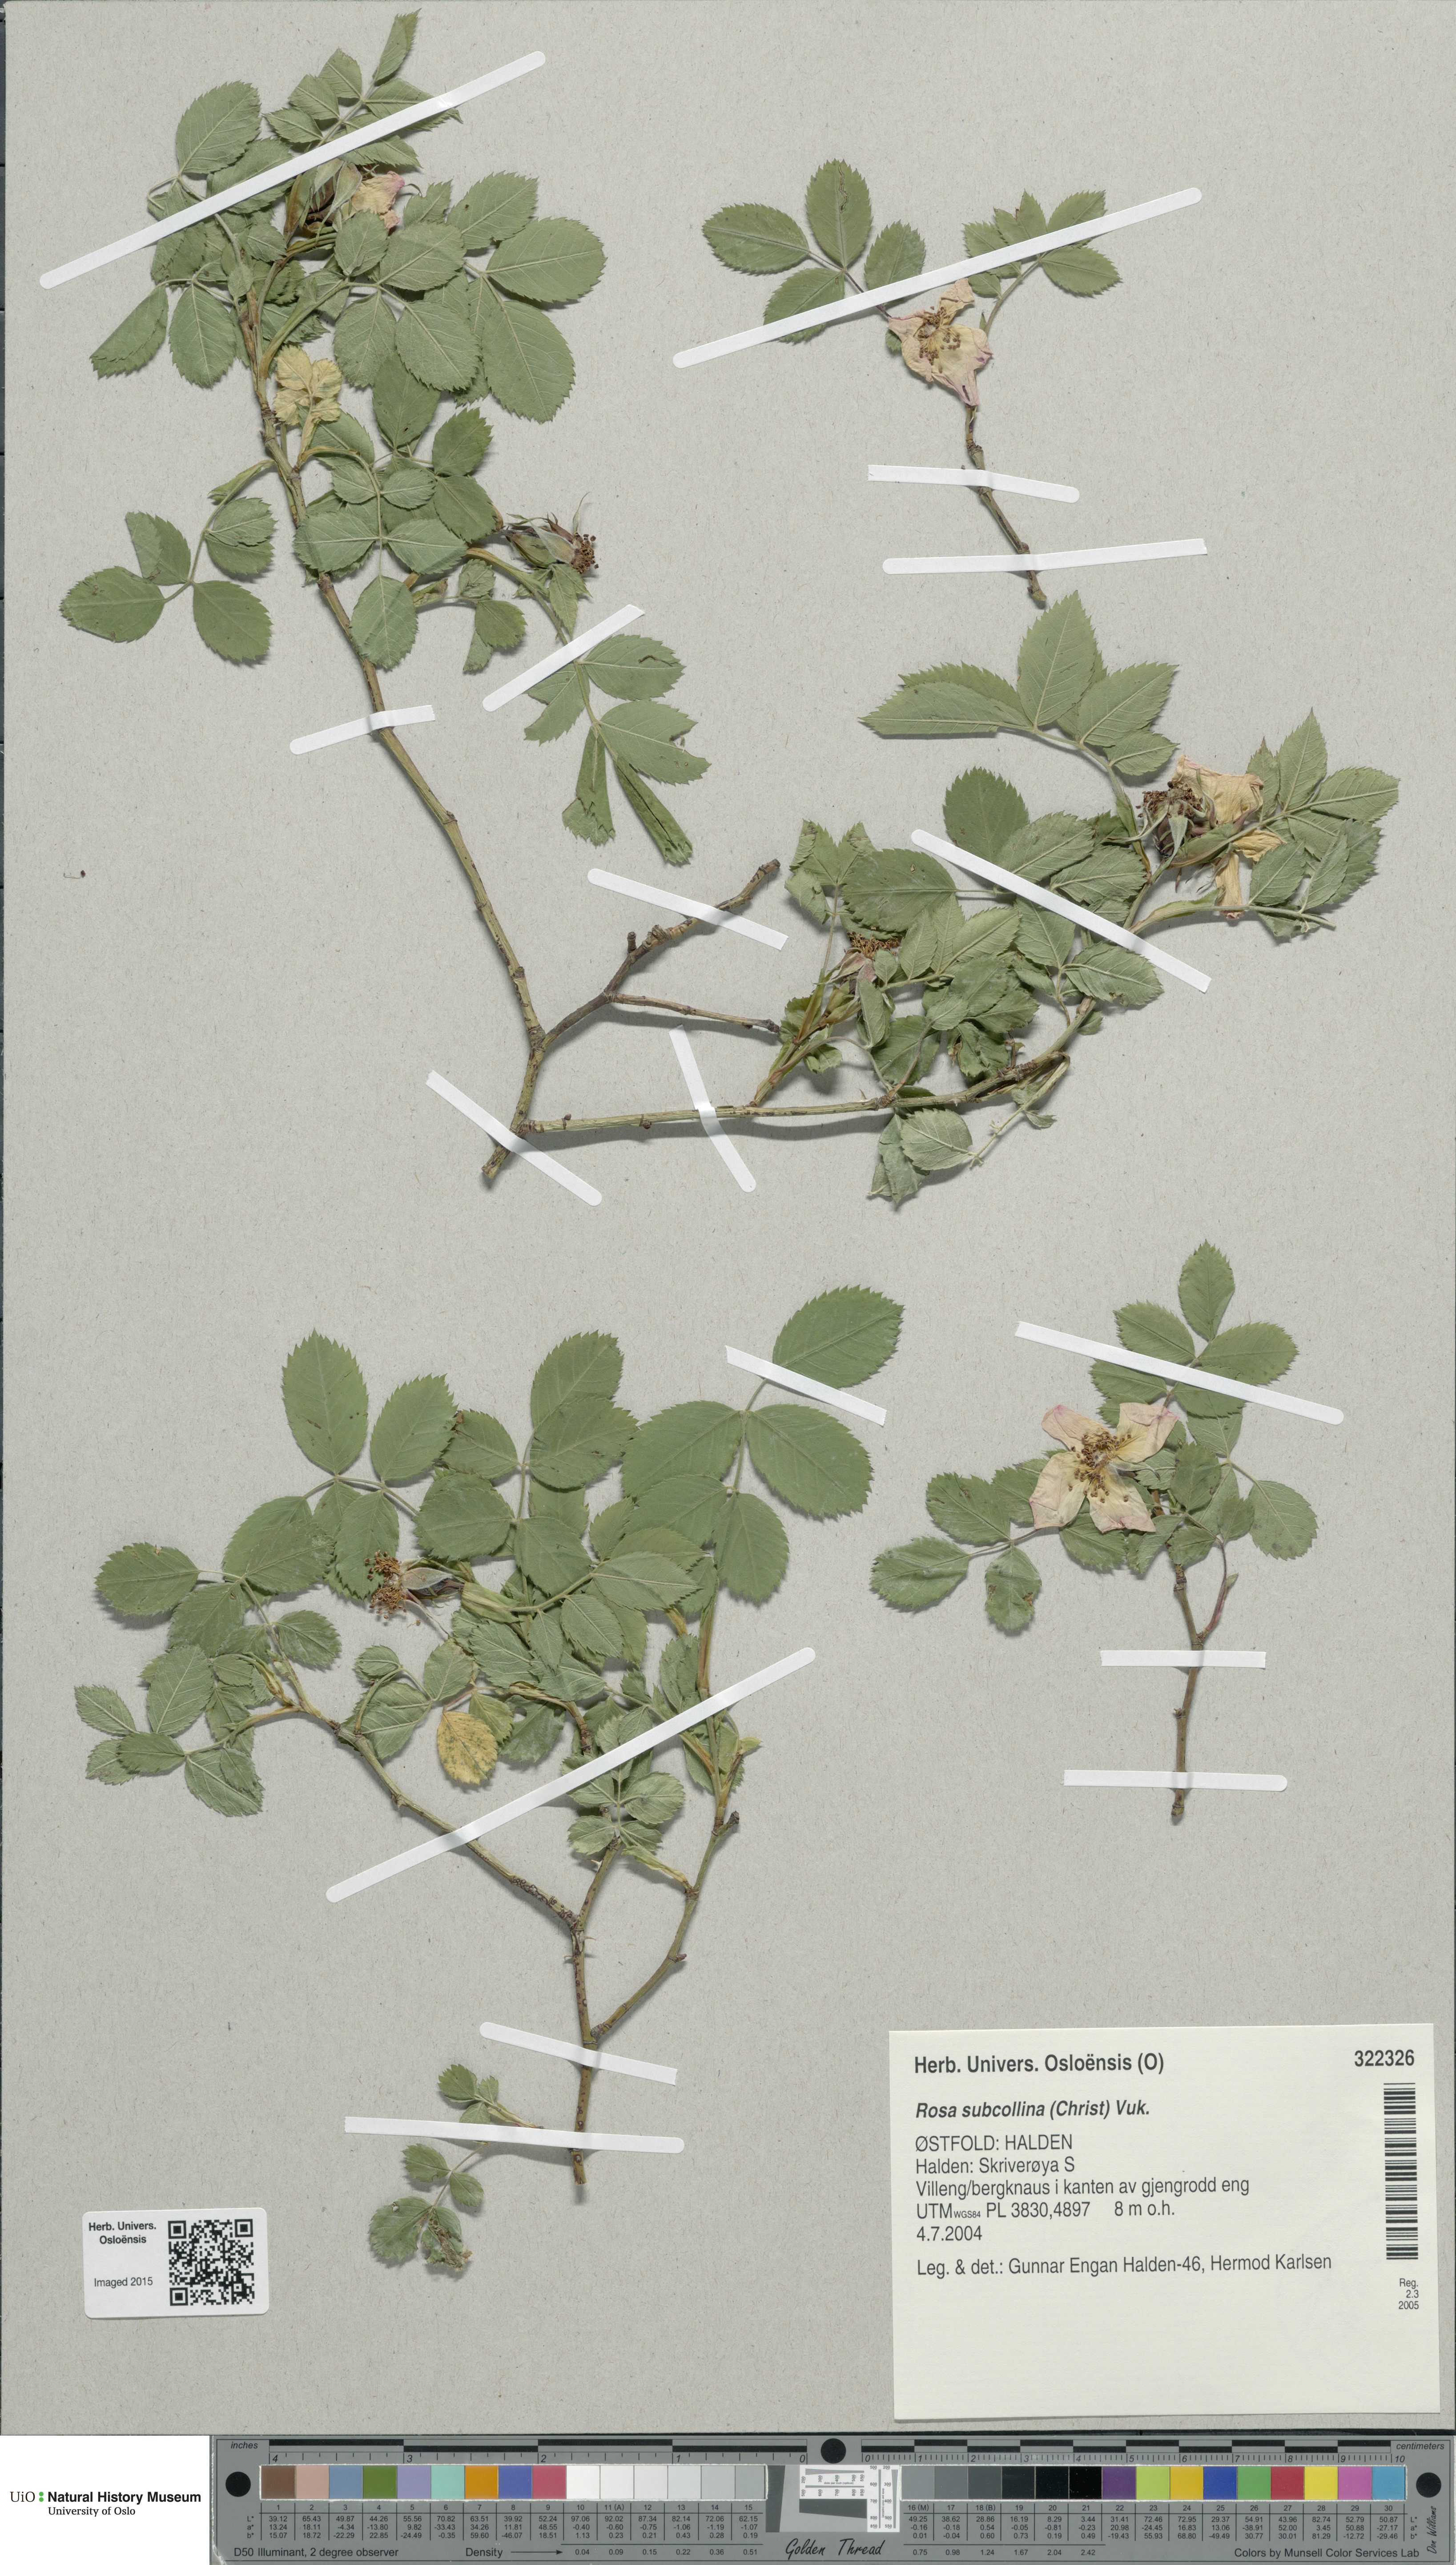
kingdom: Plantae
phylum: Tracheophyta
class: Magnoliopsida
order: Rosales
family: Rosaceae
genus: Rosa
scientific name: Rosa subcollina
